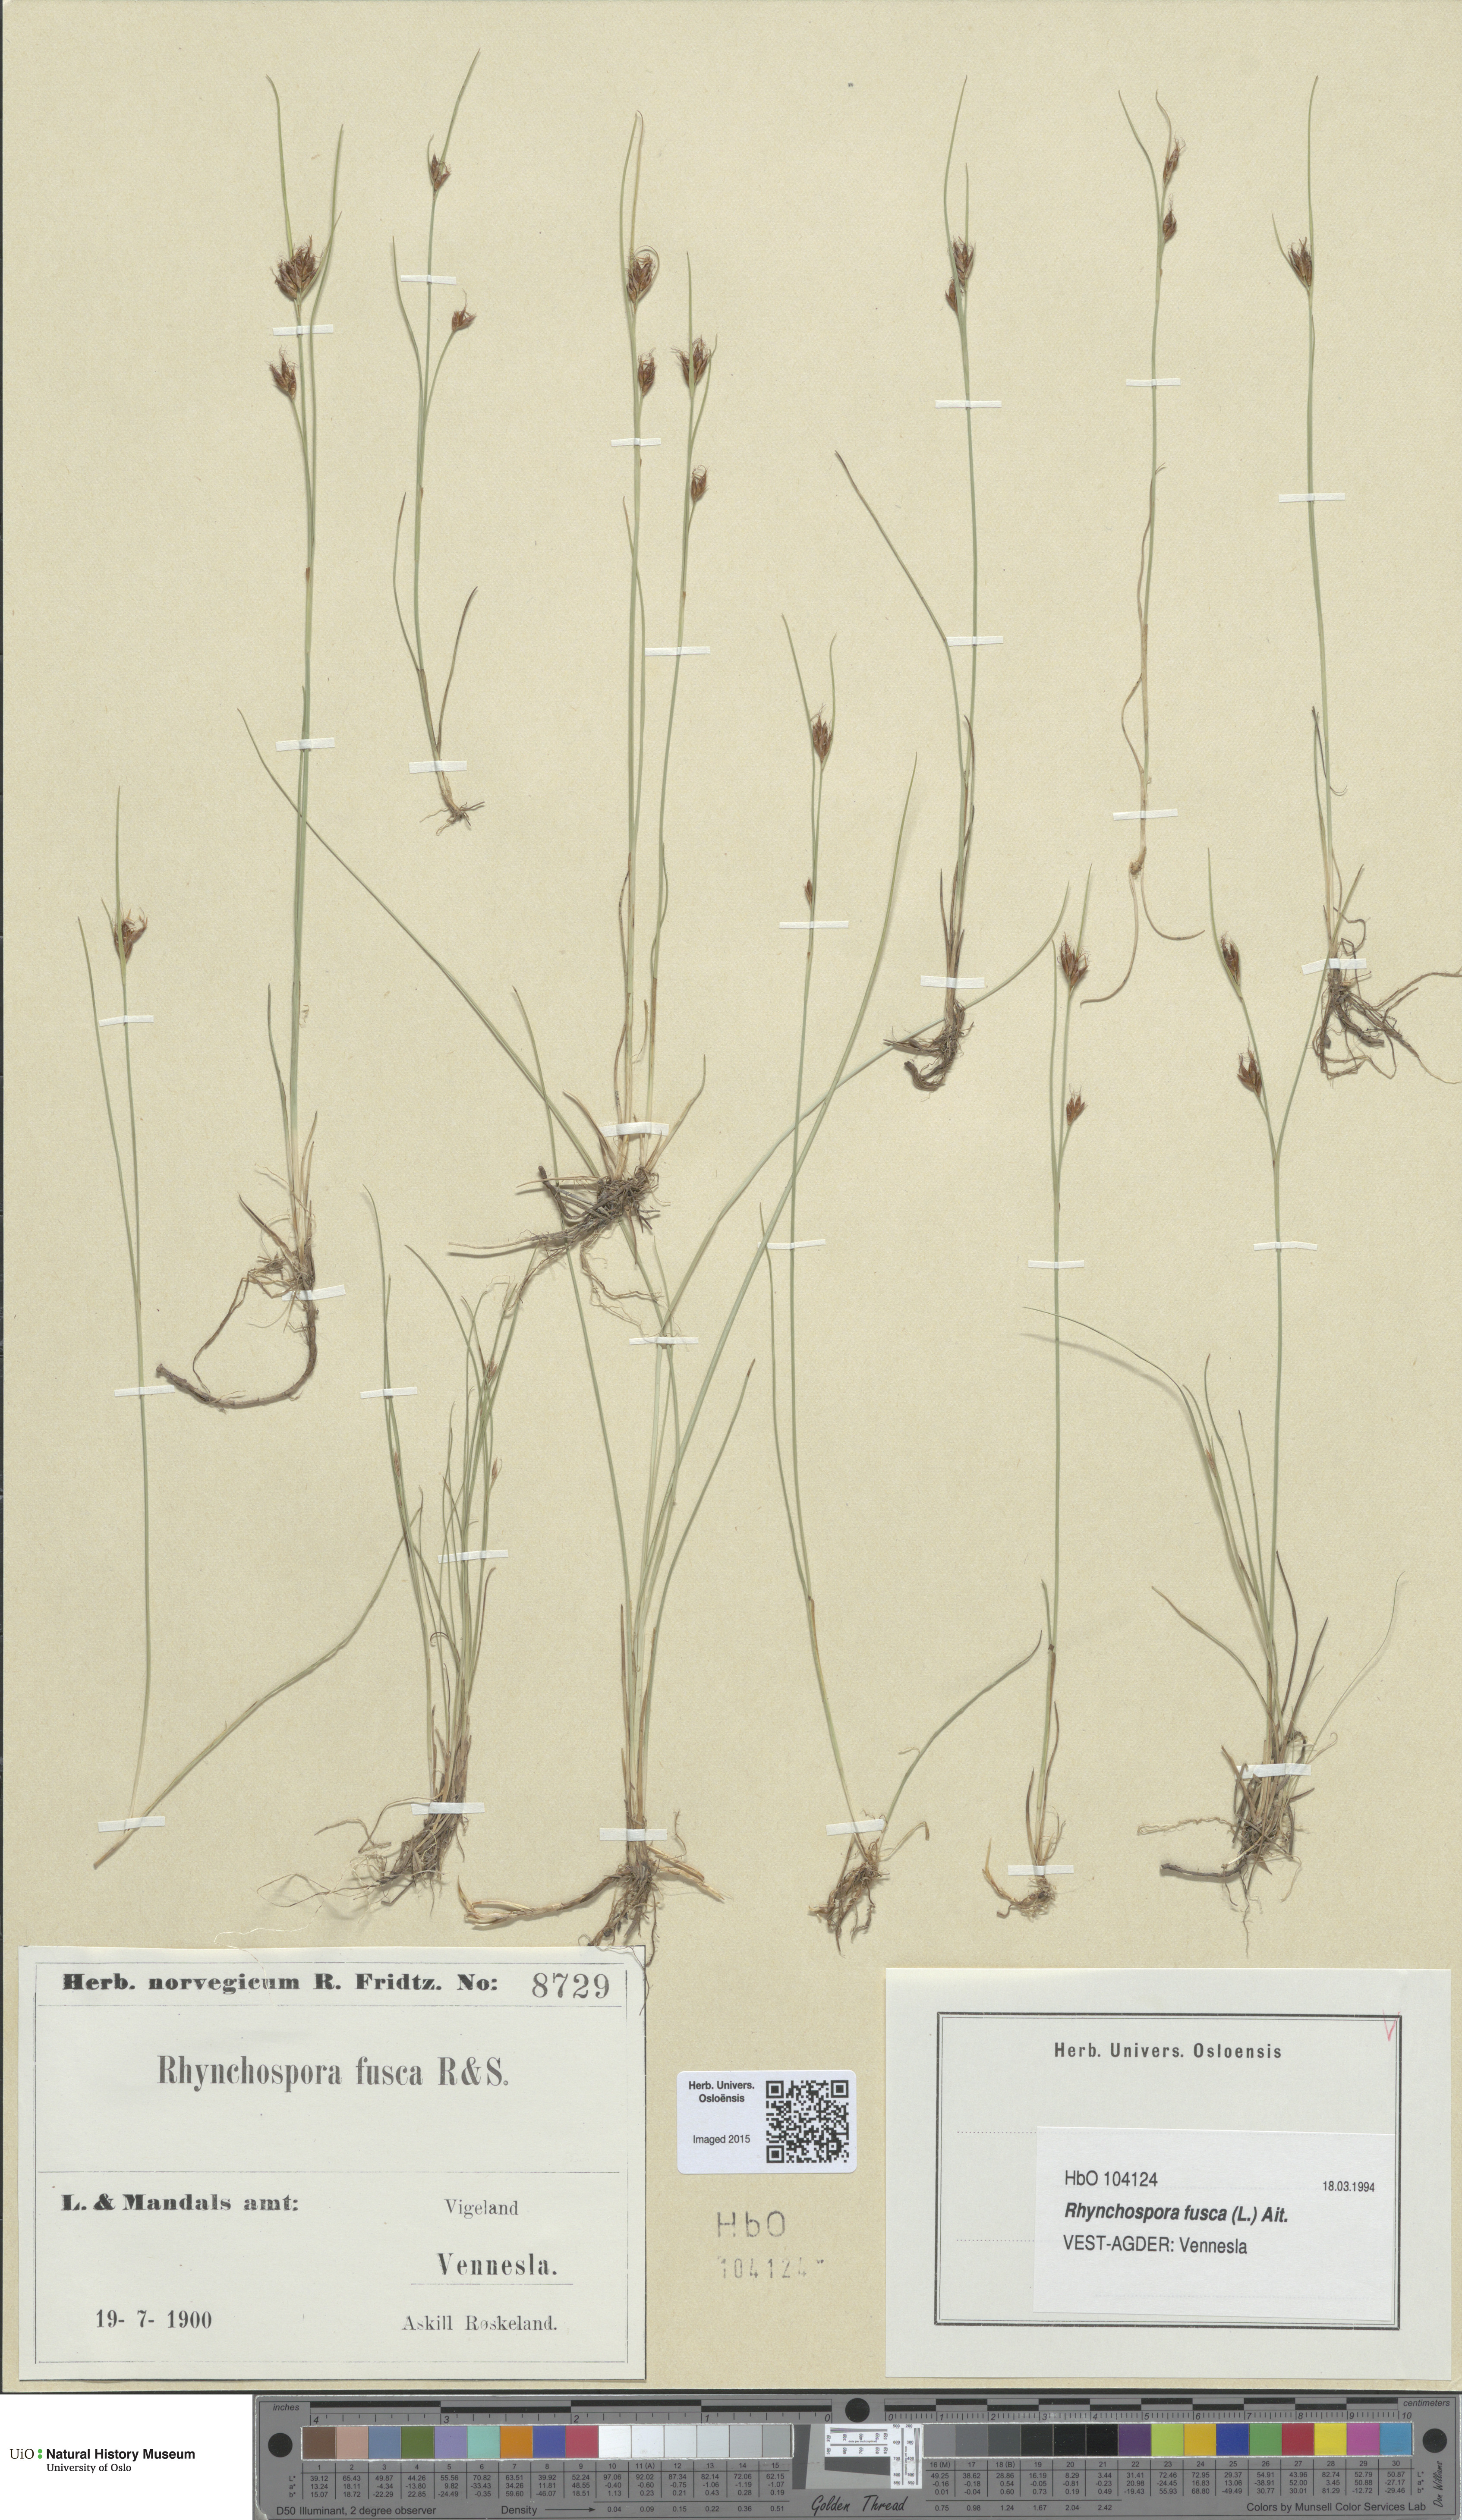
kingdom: Plantae
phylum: Tracheophyta
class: Liliopsida
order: Poales
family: Cyperaceae
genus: Rhynchospora
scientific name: Rhynchospora fusca
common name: Brown beak-sedge
